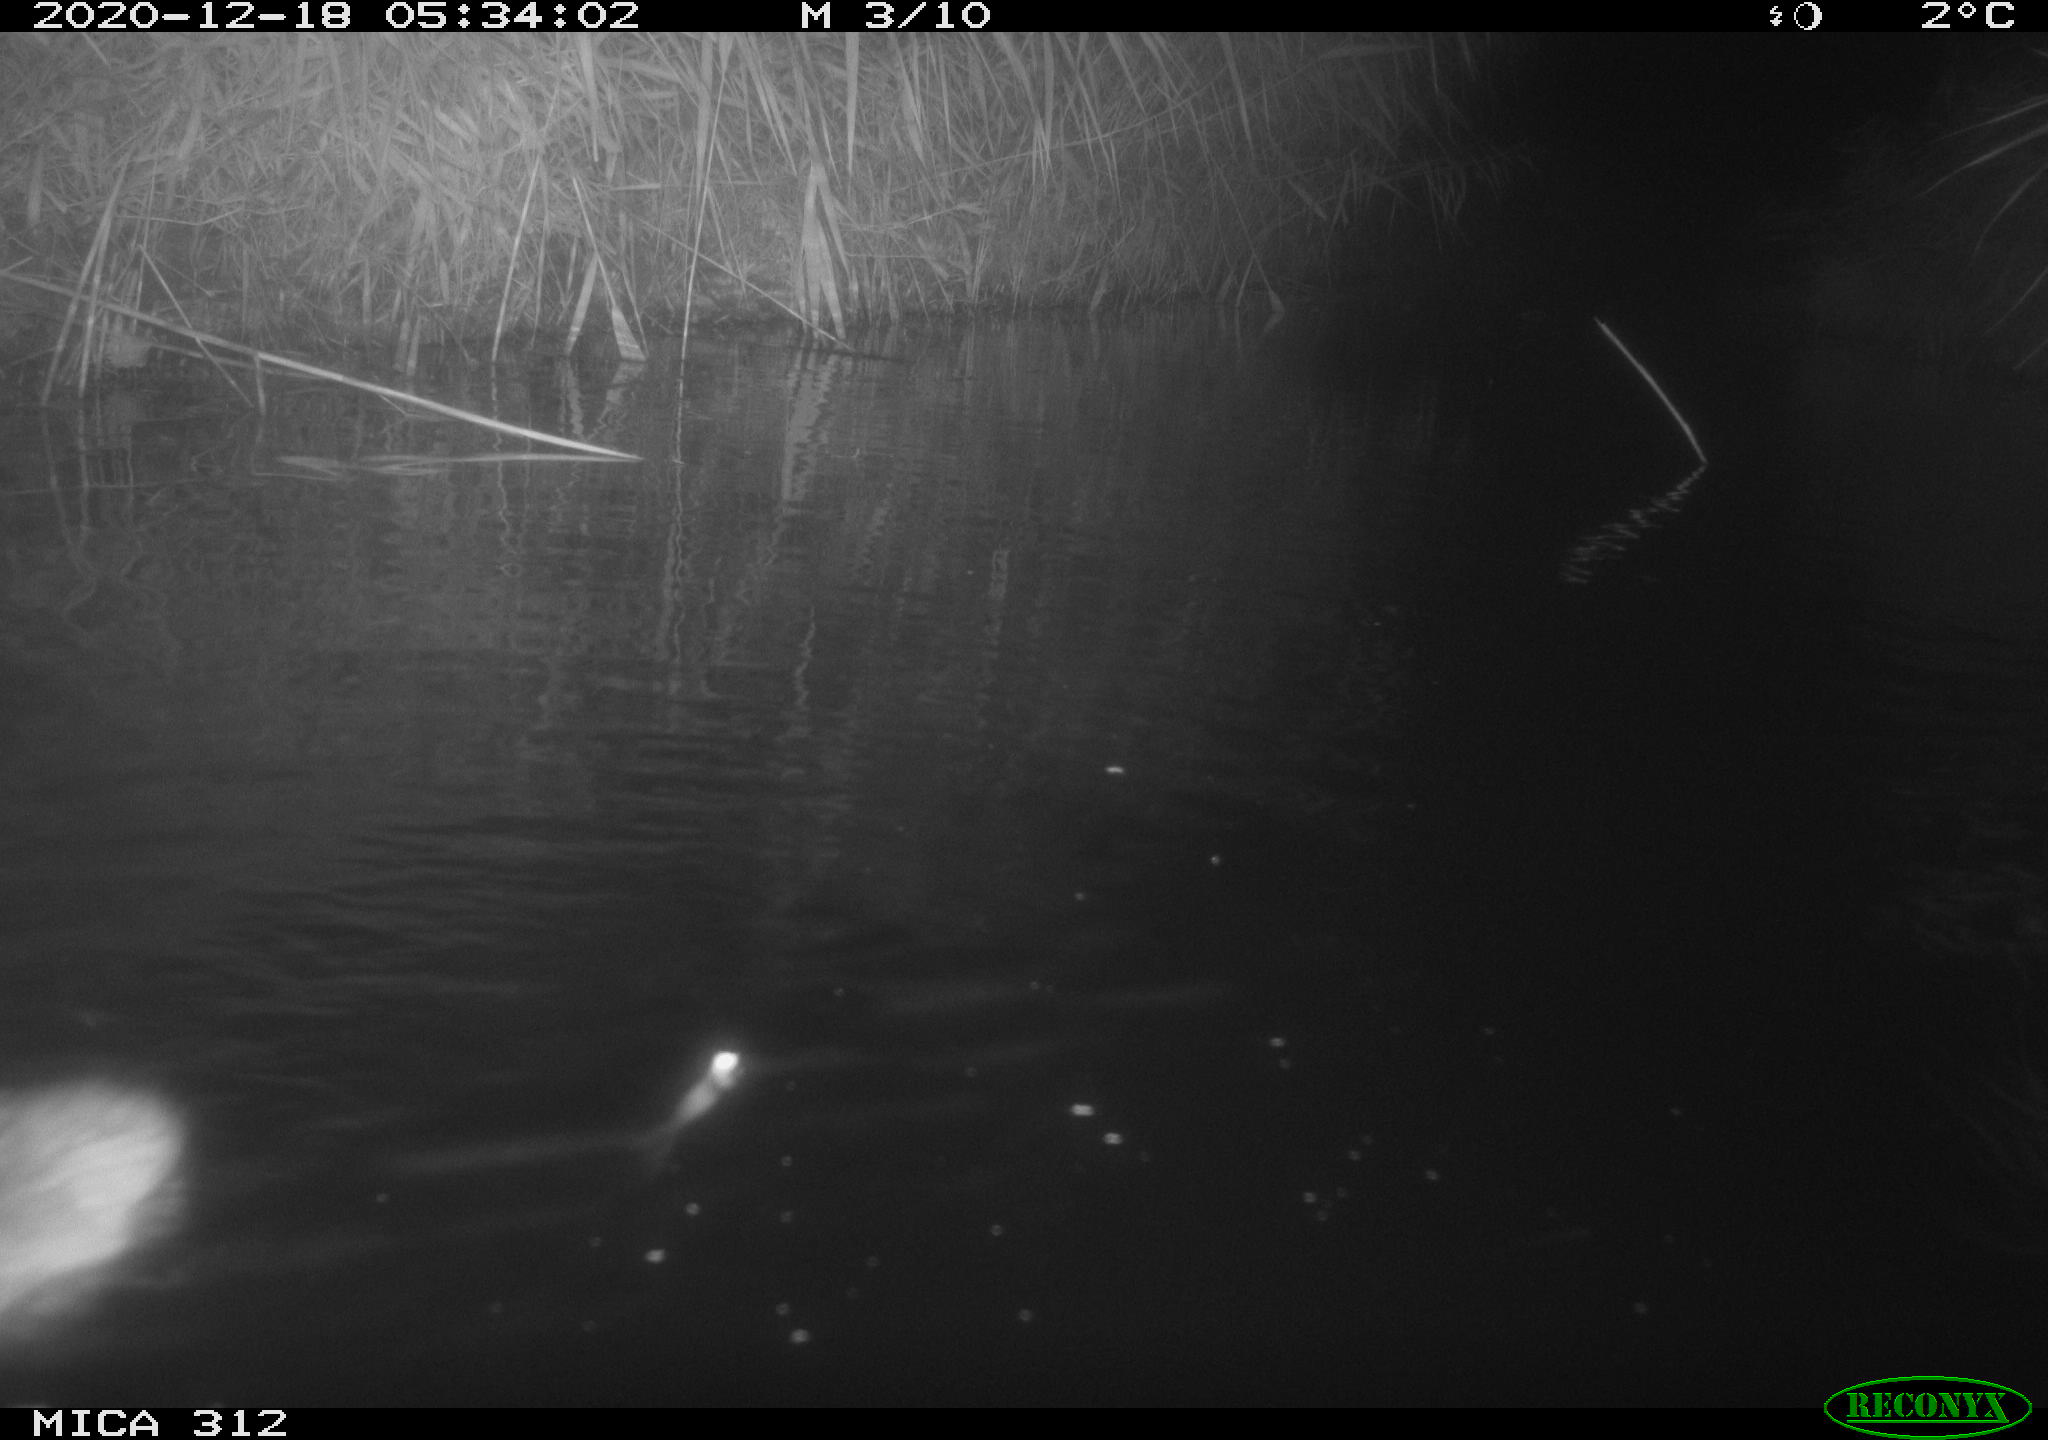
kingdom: Animalia
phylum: Chordata
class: Mammalia
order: Rodentia
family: Muridae
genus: Rattus
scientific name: Rattus norvegicus
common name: Brown rat
